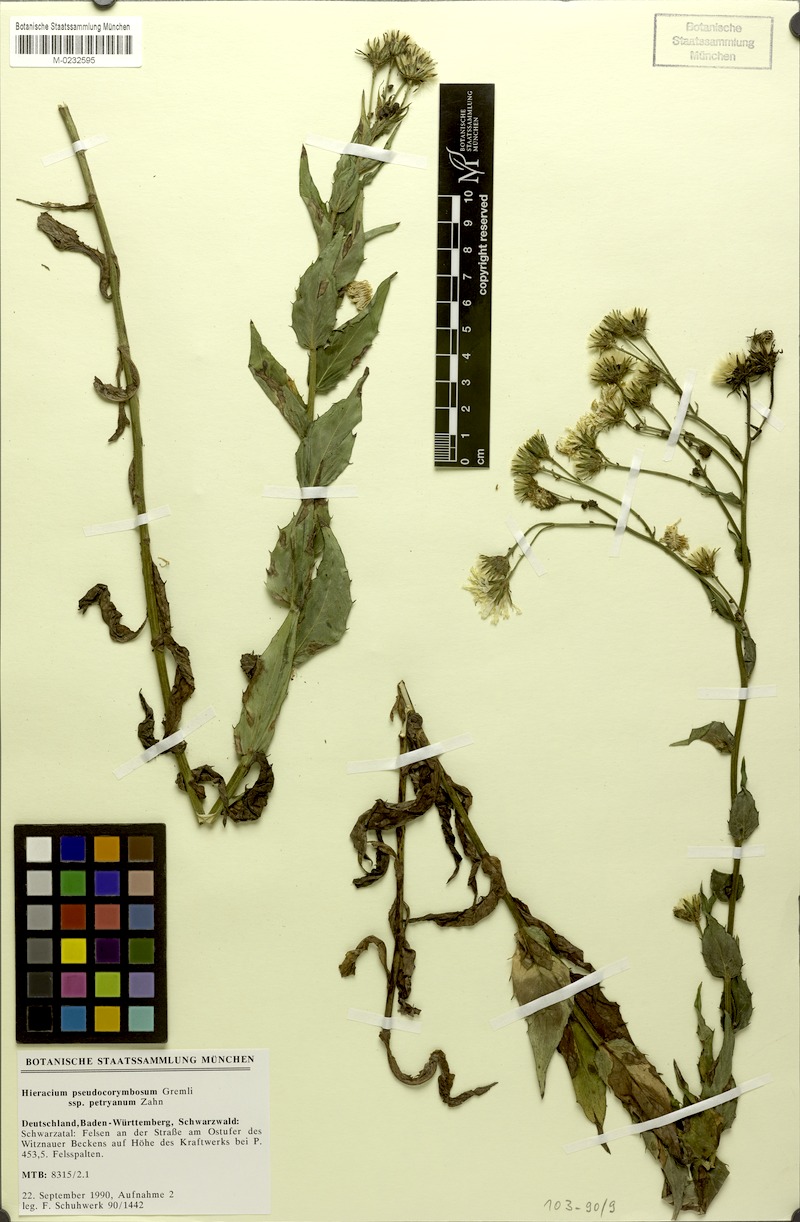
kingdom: Plantae
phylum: Tracheophyta
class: Magnoliopsida
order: Asterales
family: Asteraceae
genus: Hieracium
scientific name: Hieracium pseudocorymbosum
